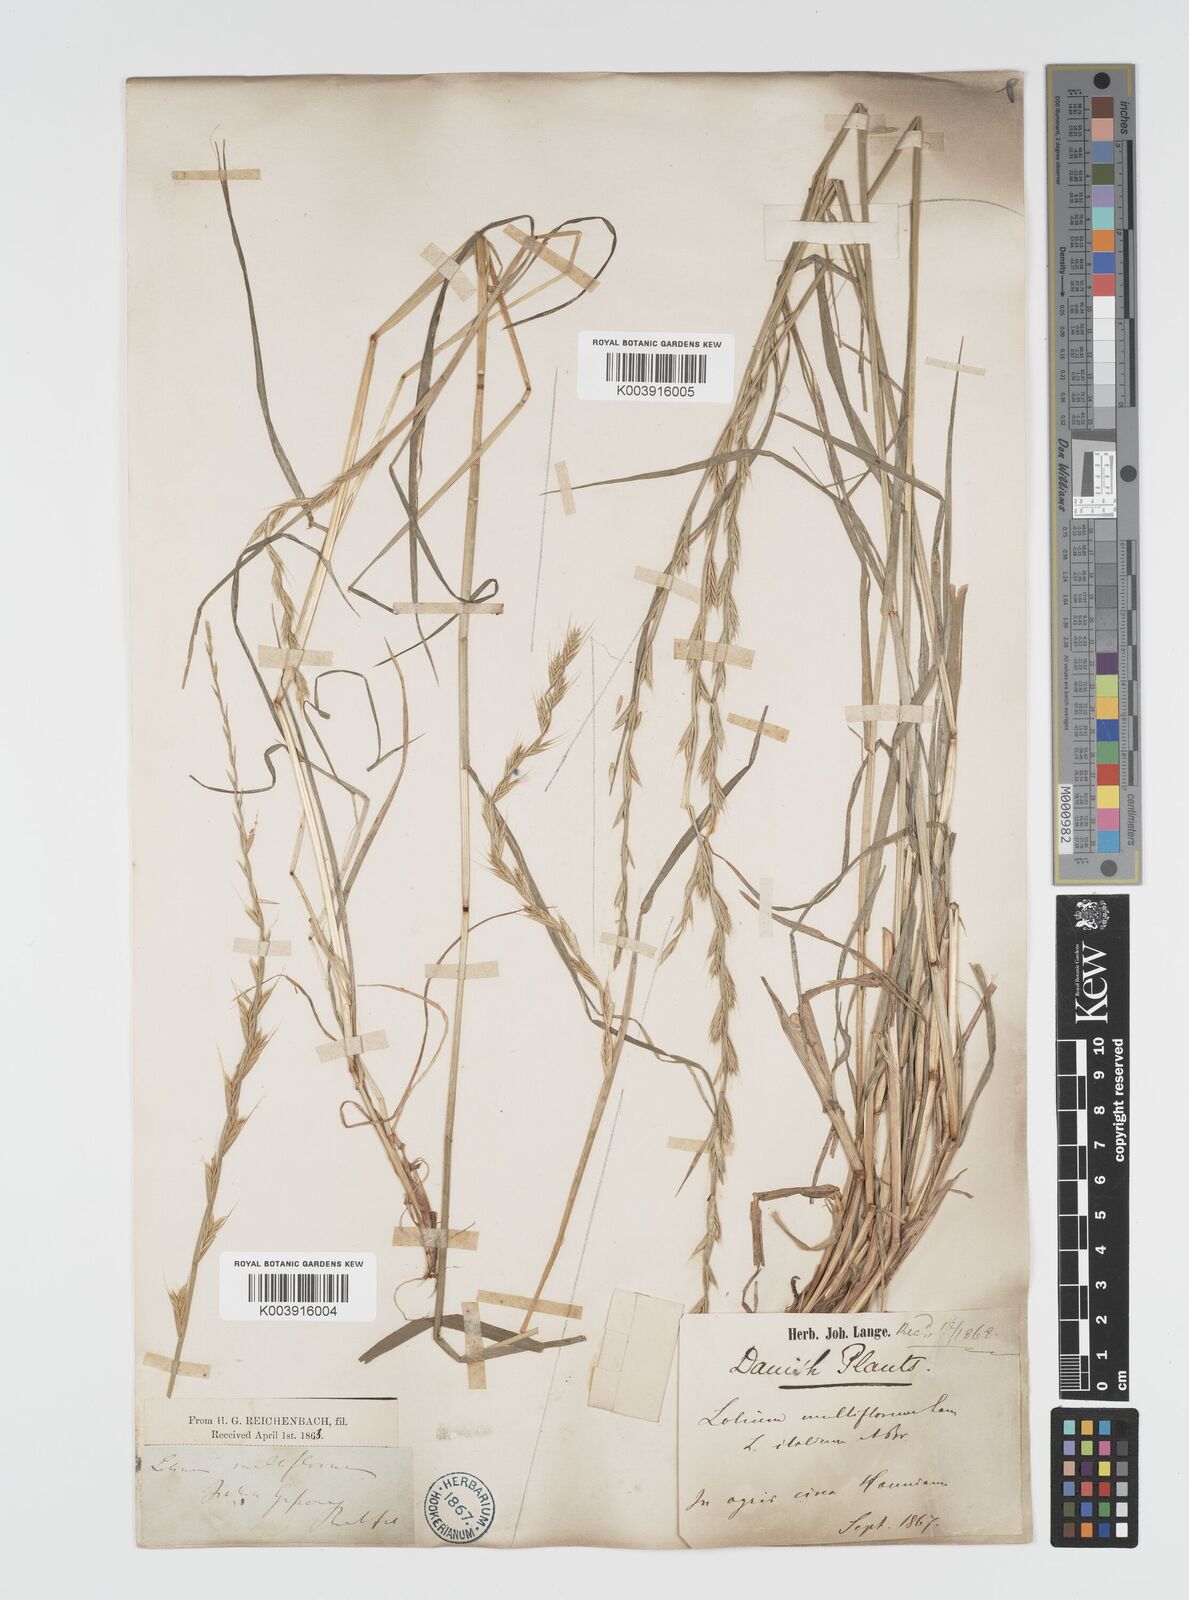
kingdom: Plantae
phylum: Tracheophyta
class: Liliopsida
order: Poales
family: Poaceae
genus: Lolium
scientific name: Lolium multiflorum
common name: Annual ryegrass
